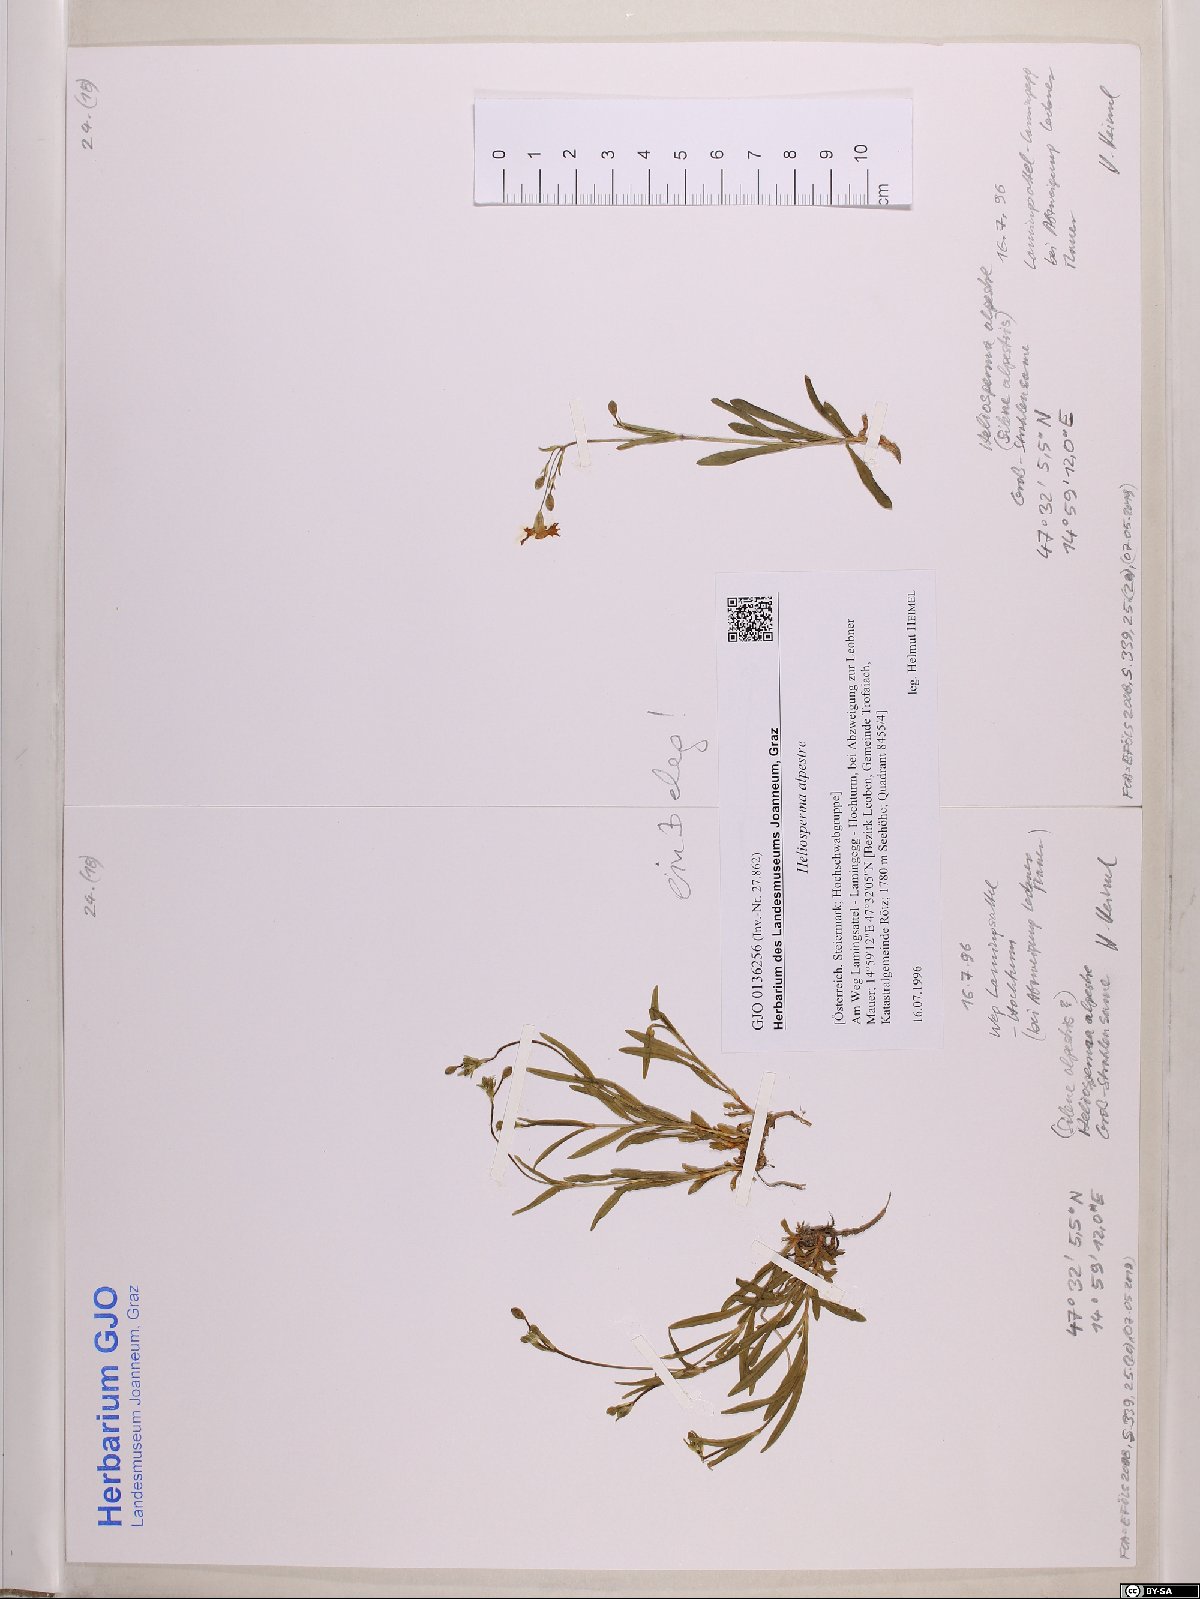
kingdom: Plantae
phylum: Tracheophyta
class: Magnoliopsida
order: Caryophyllales
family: Caryophyllaceae
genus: Heliosperma
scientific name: Heliosperma alpestre
